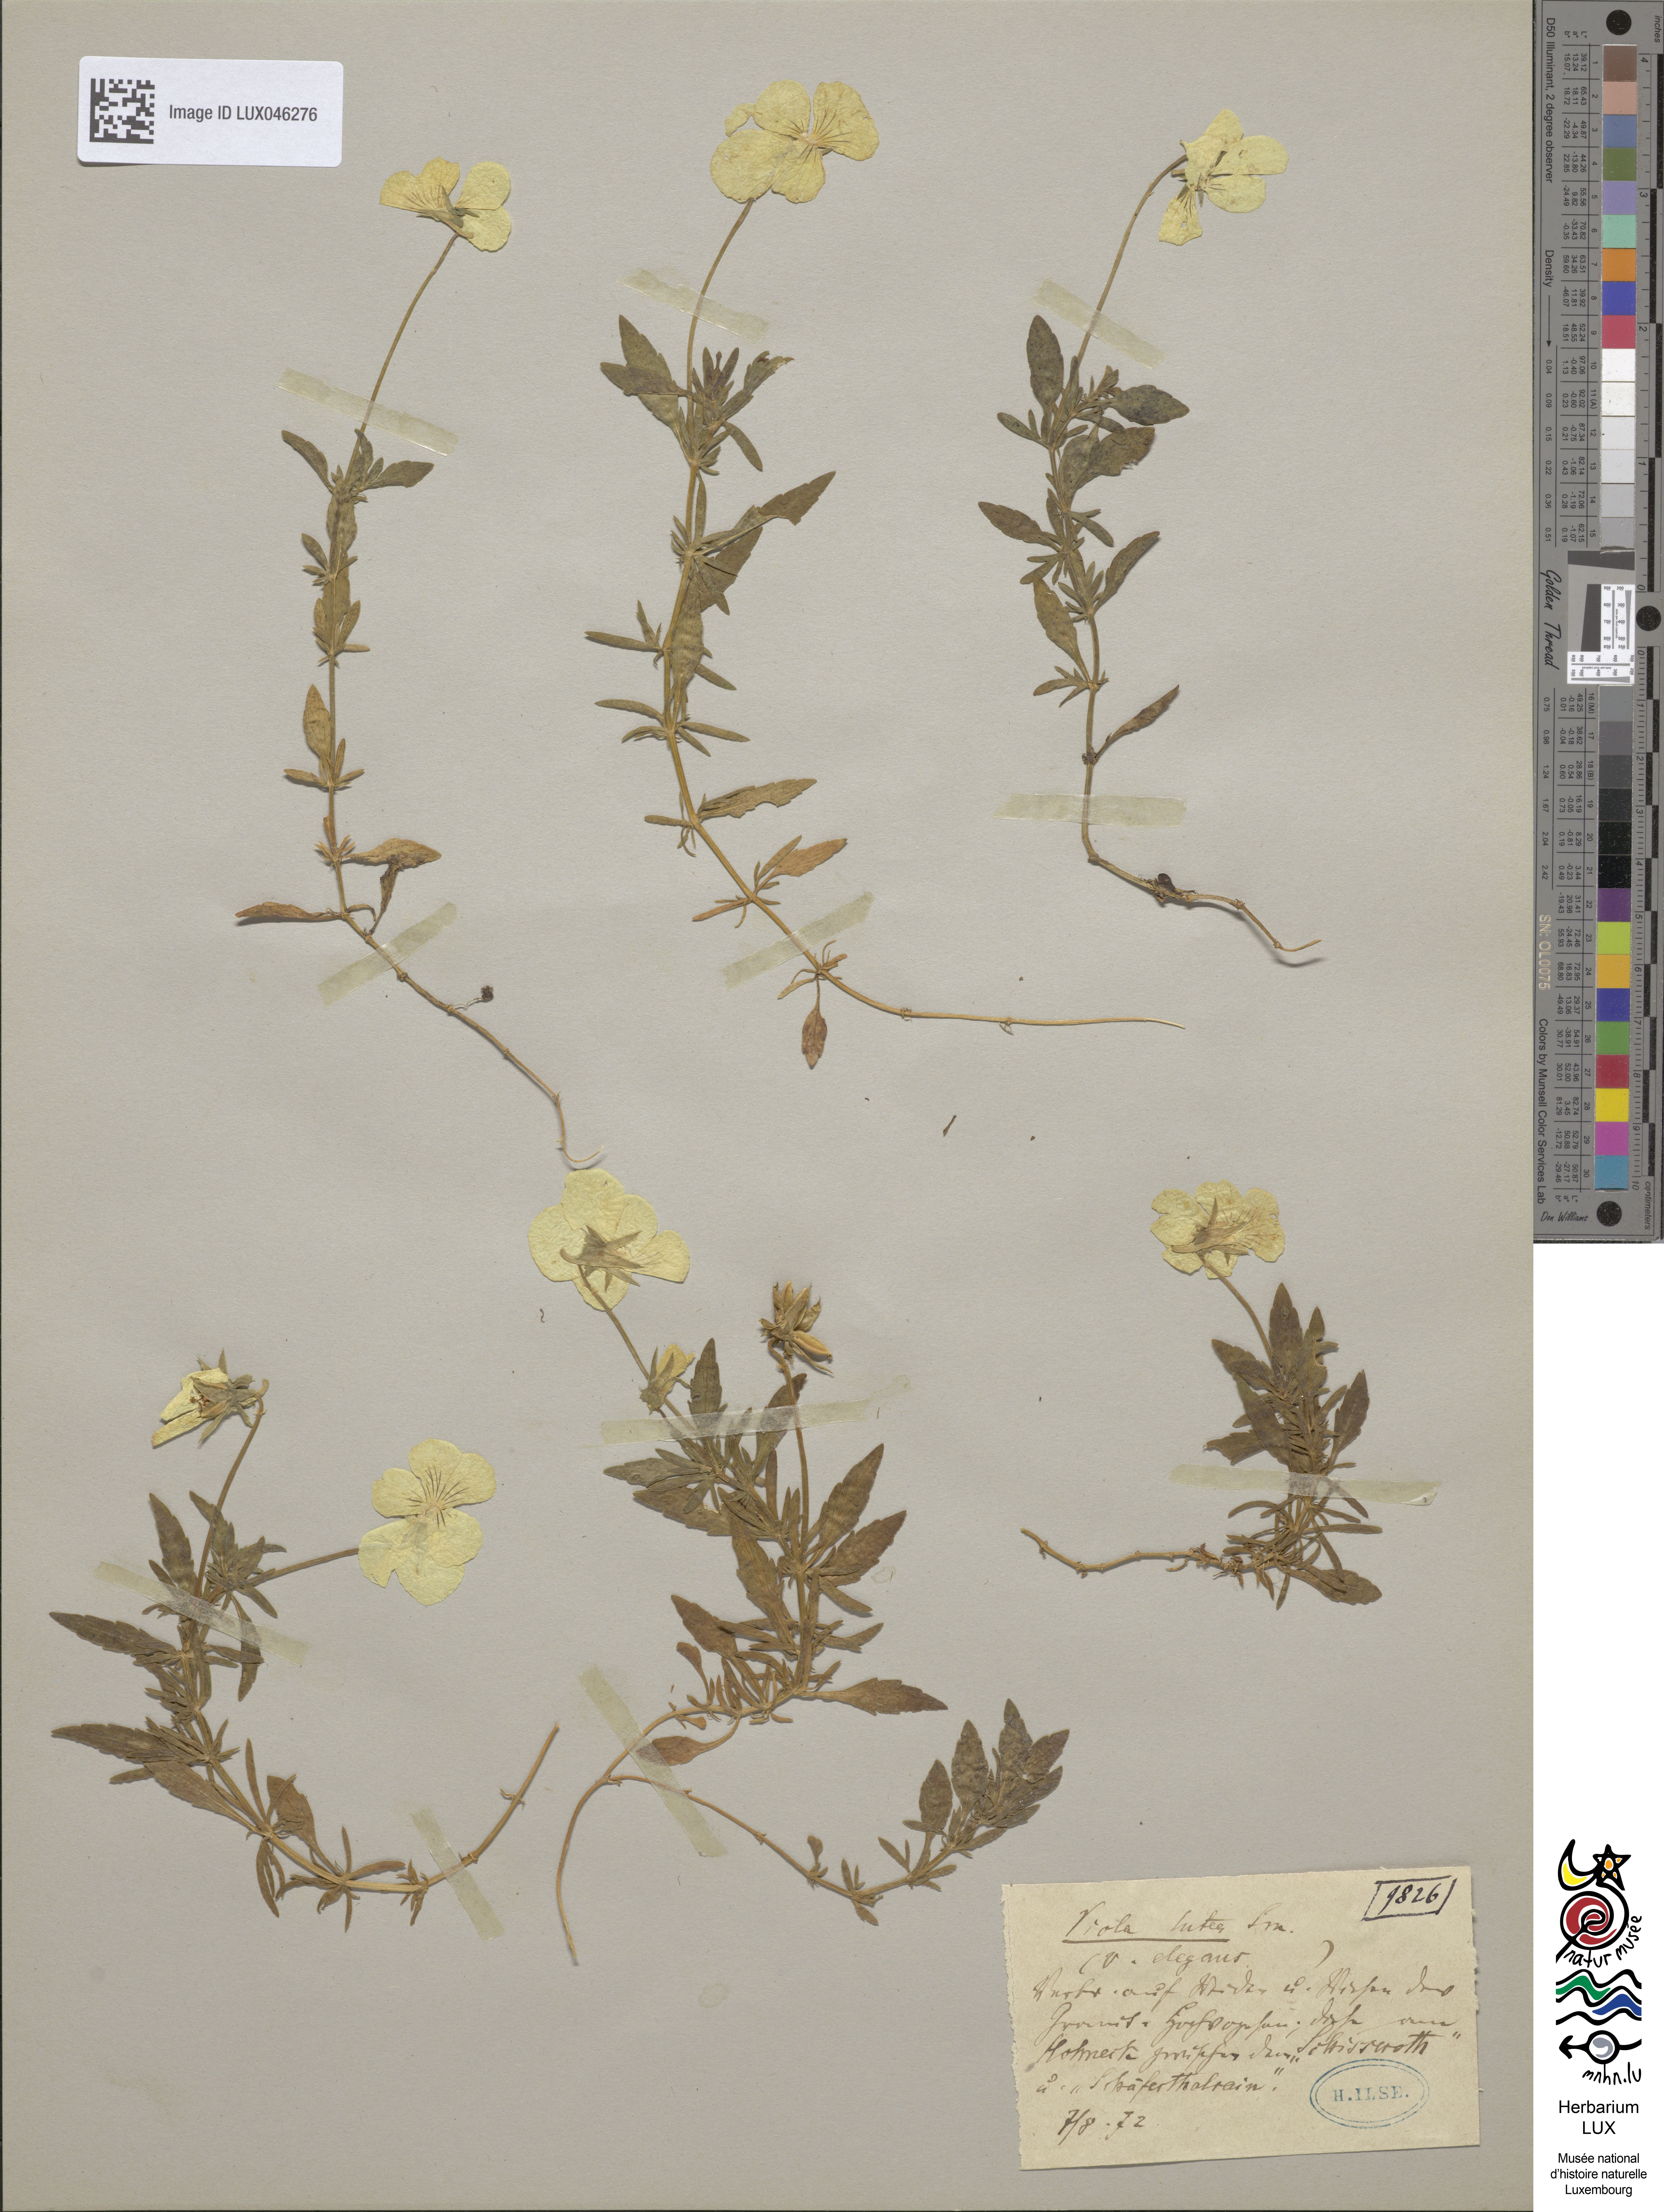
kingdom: Plantae
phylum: Tracheophyta
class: Magnoliopsida
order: Malpighiales
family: Violaceae
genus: Viola
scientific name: Viola lutea
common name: Mountain pansy
